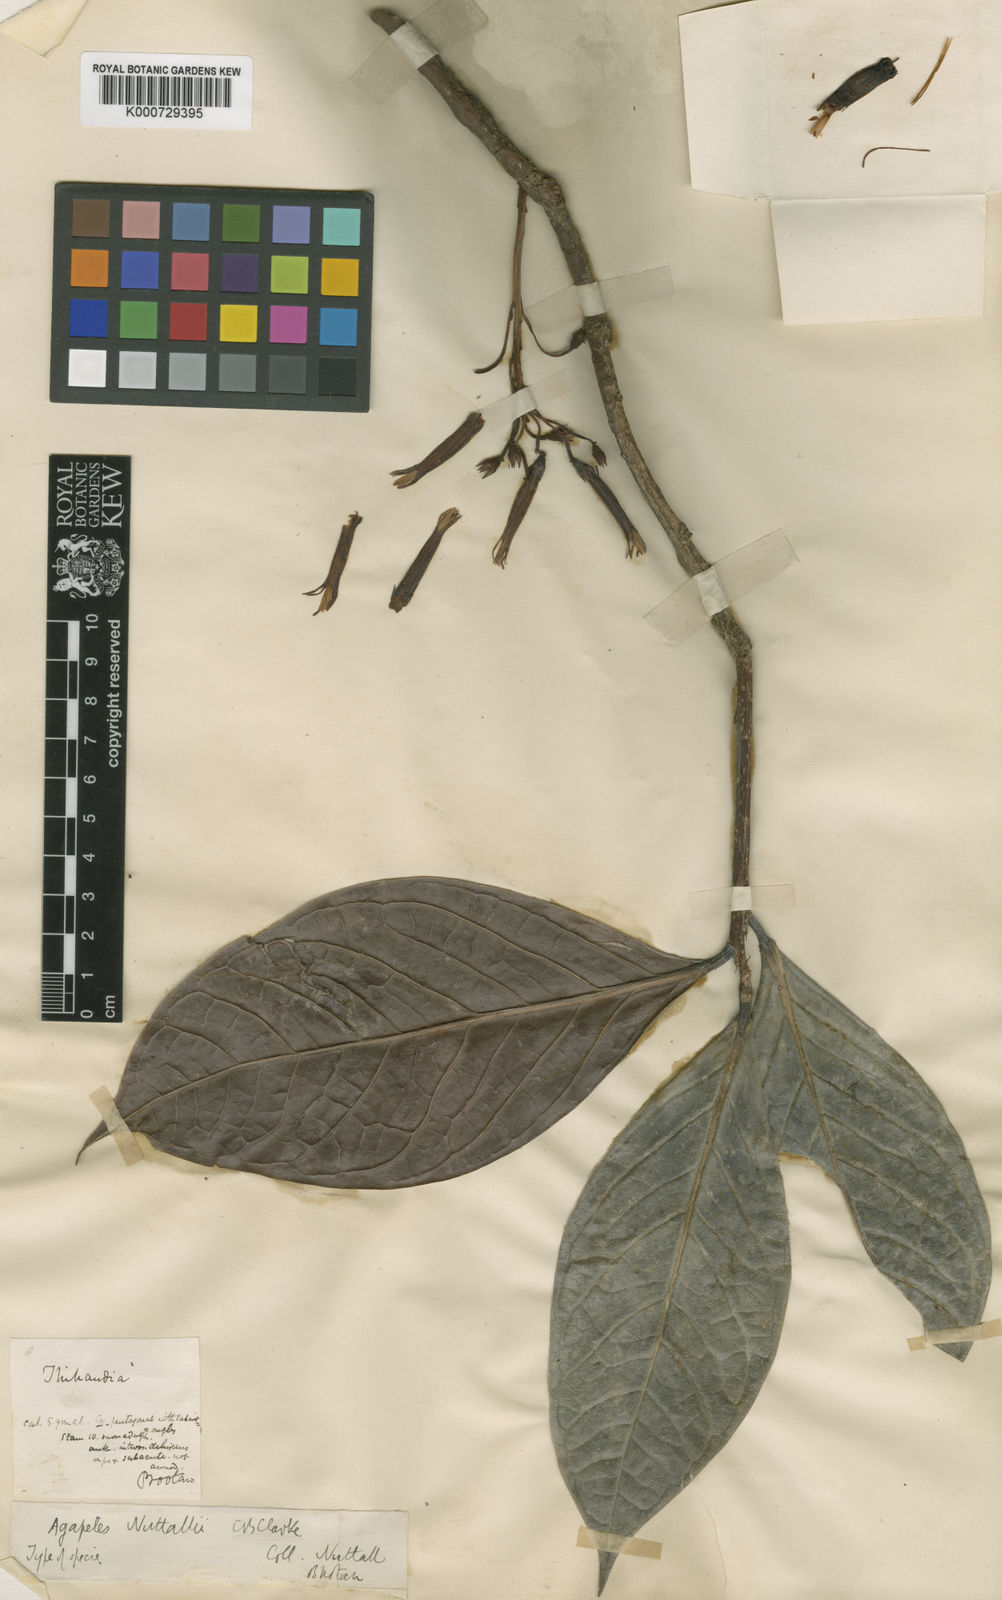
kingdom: Plantae
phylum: Tracheophyta
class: Magnoliopsida
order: Ericales
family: Ericaceae
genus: Agapetes
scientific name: Agapetes nuttallii
